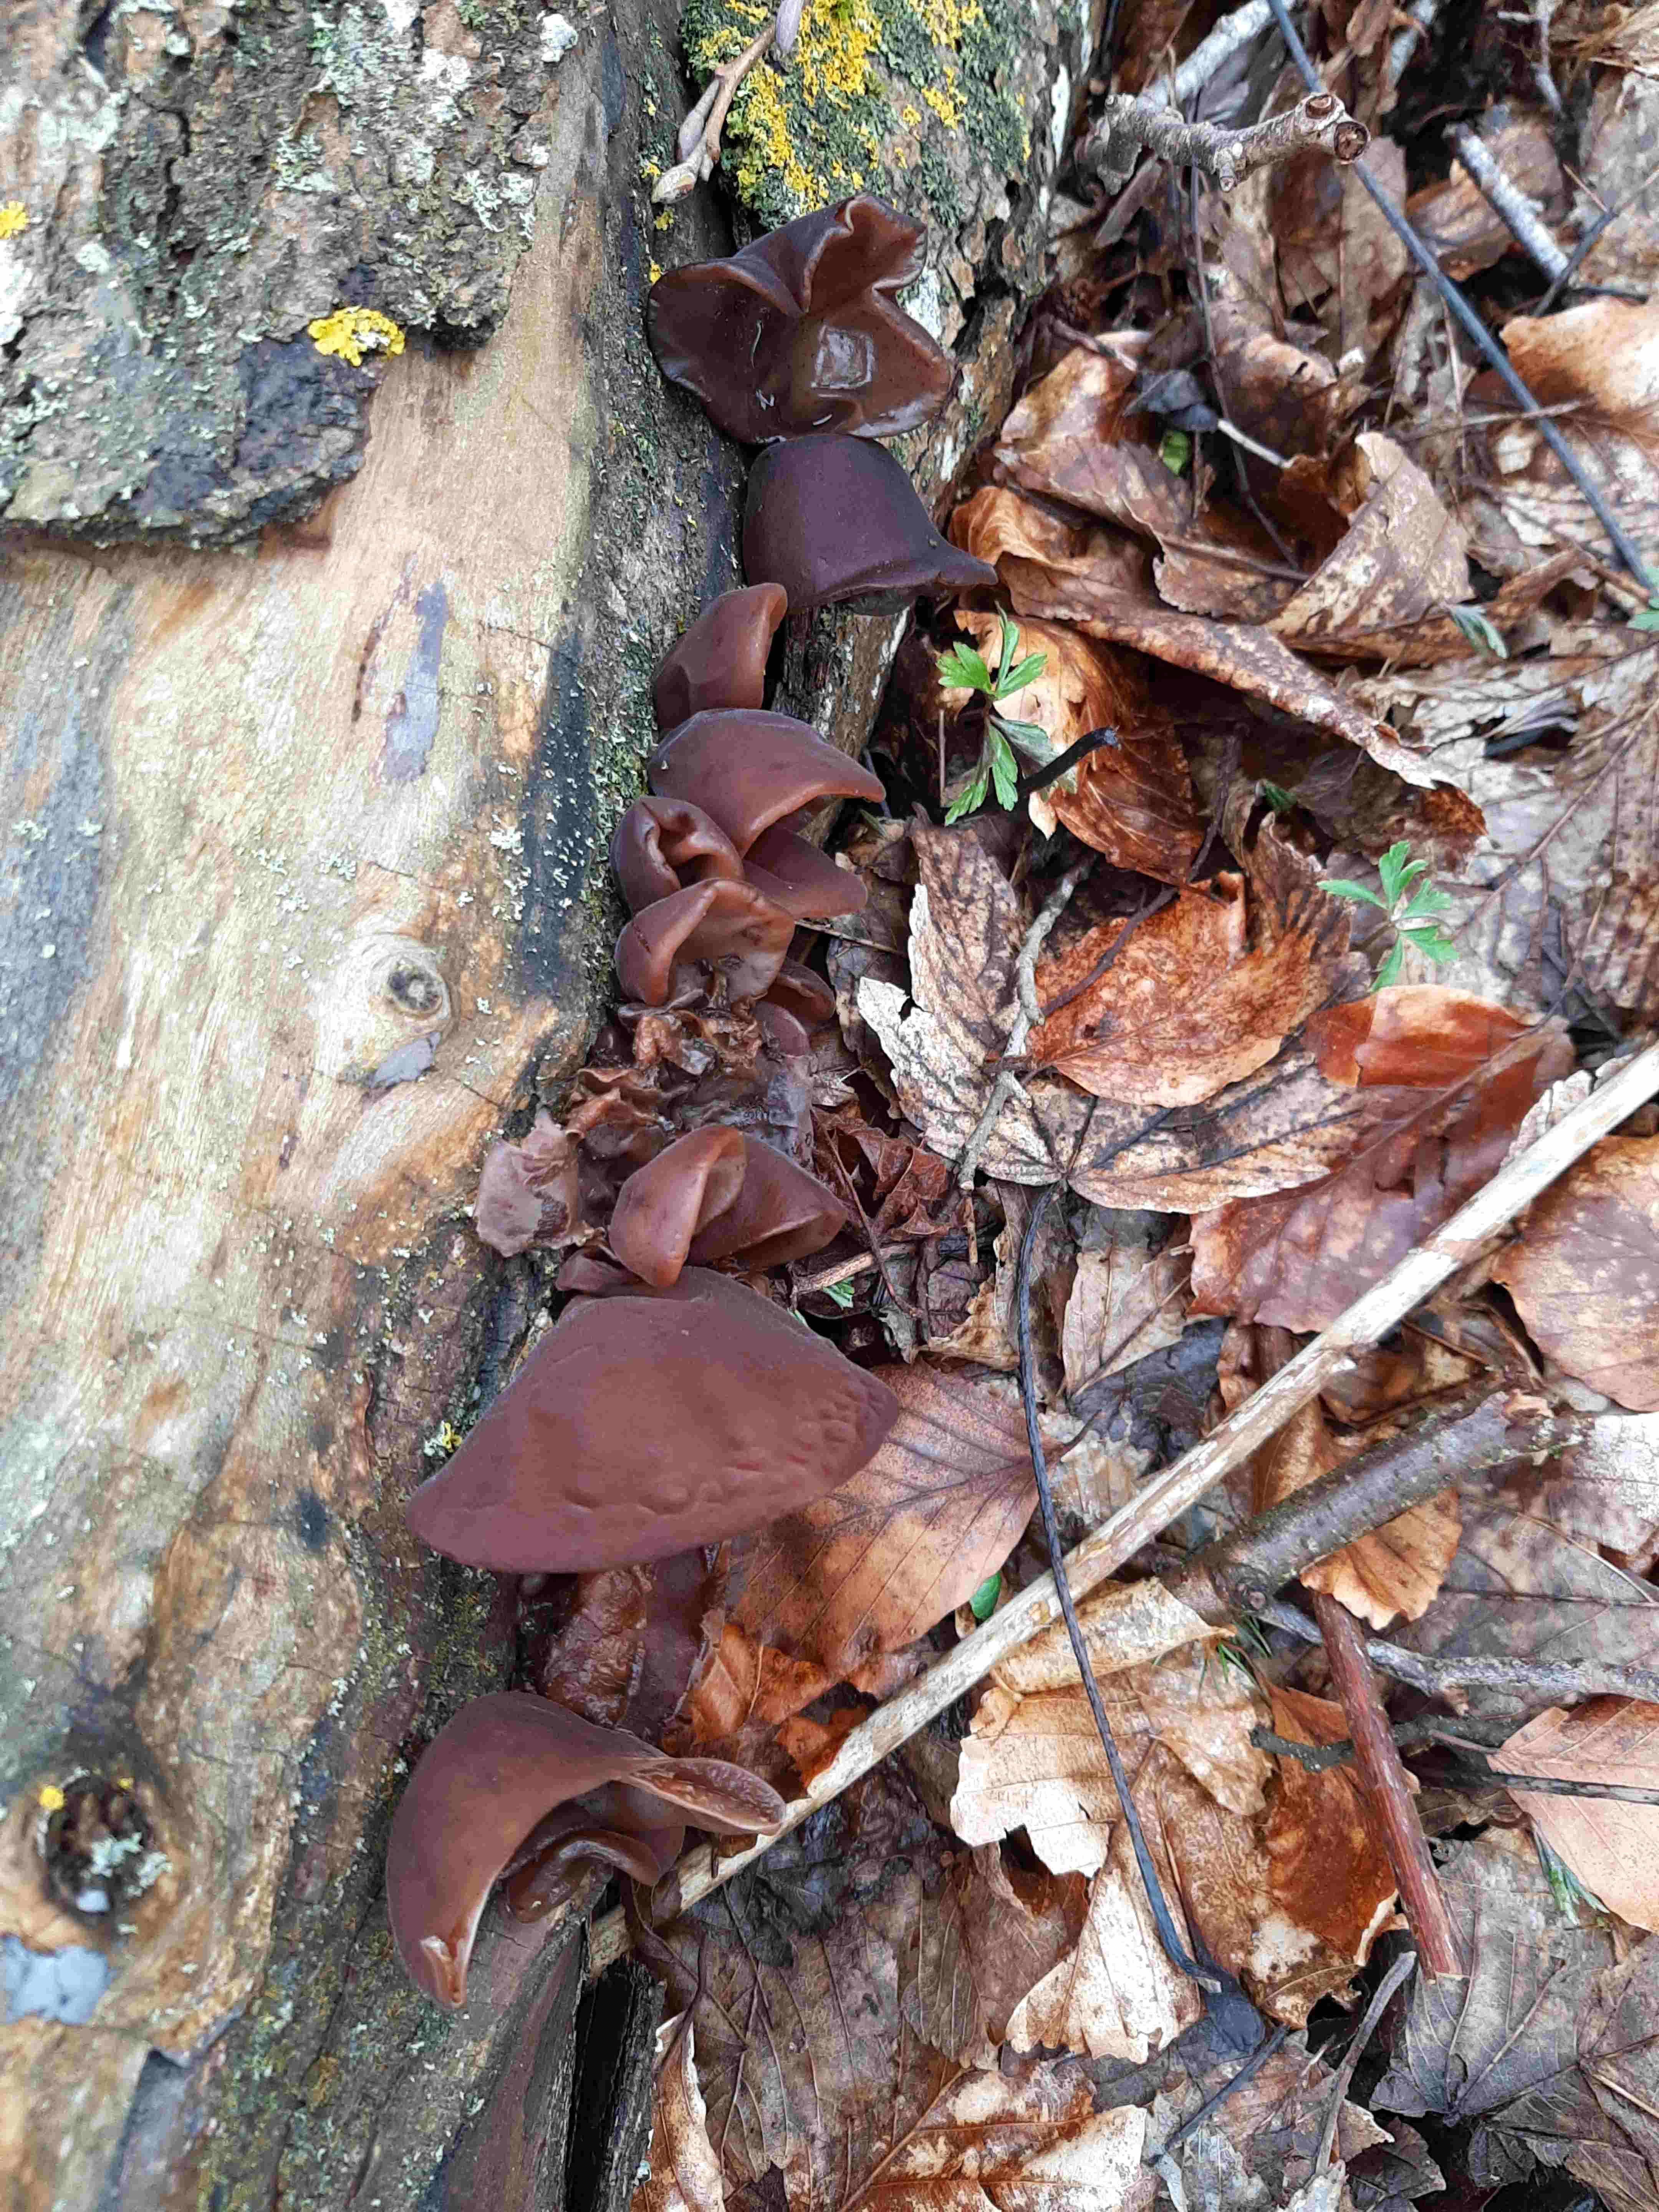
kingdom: Fungi
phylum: Basidiomycota
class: Agaricomycetes
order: Auriculariales
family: Auriculariaceae
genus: Auricularia
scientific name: Auricularia auricula-judae
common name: almindelig judasøre
